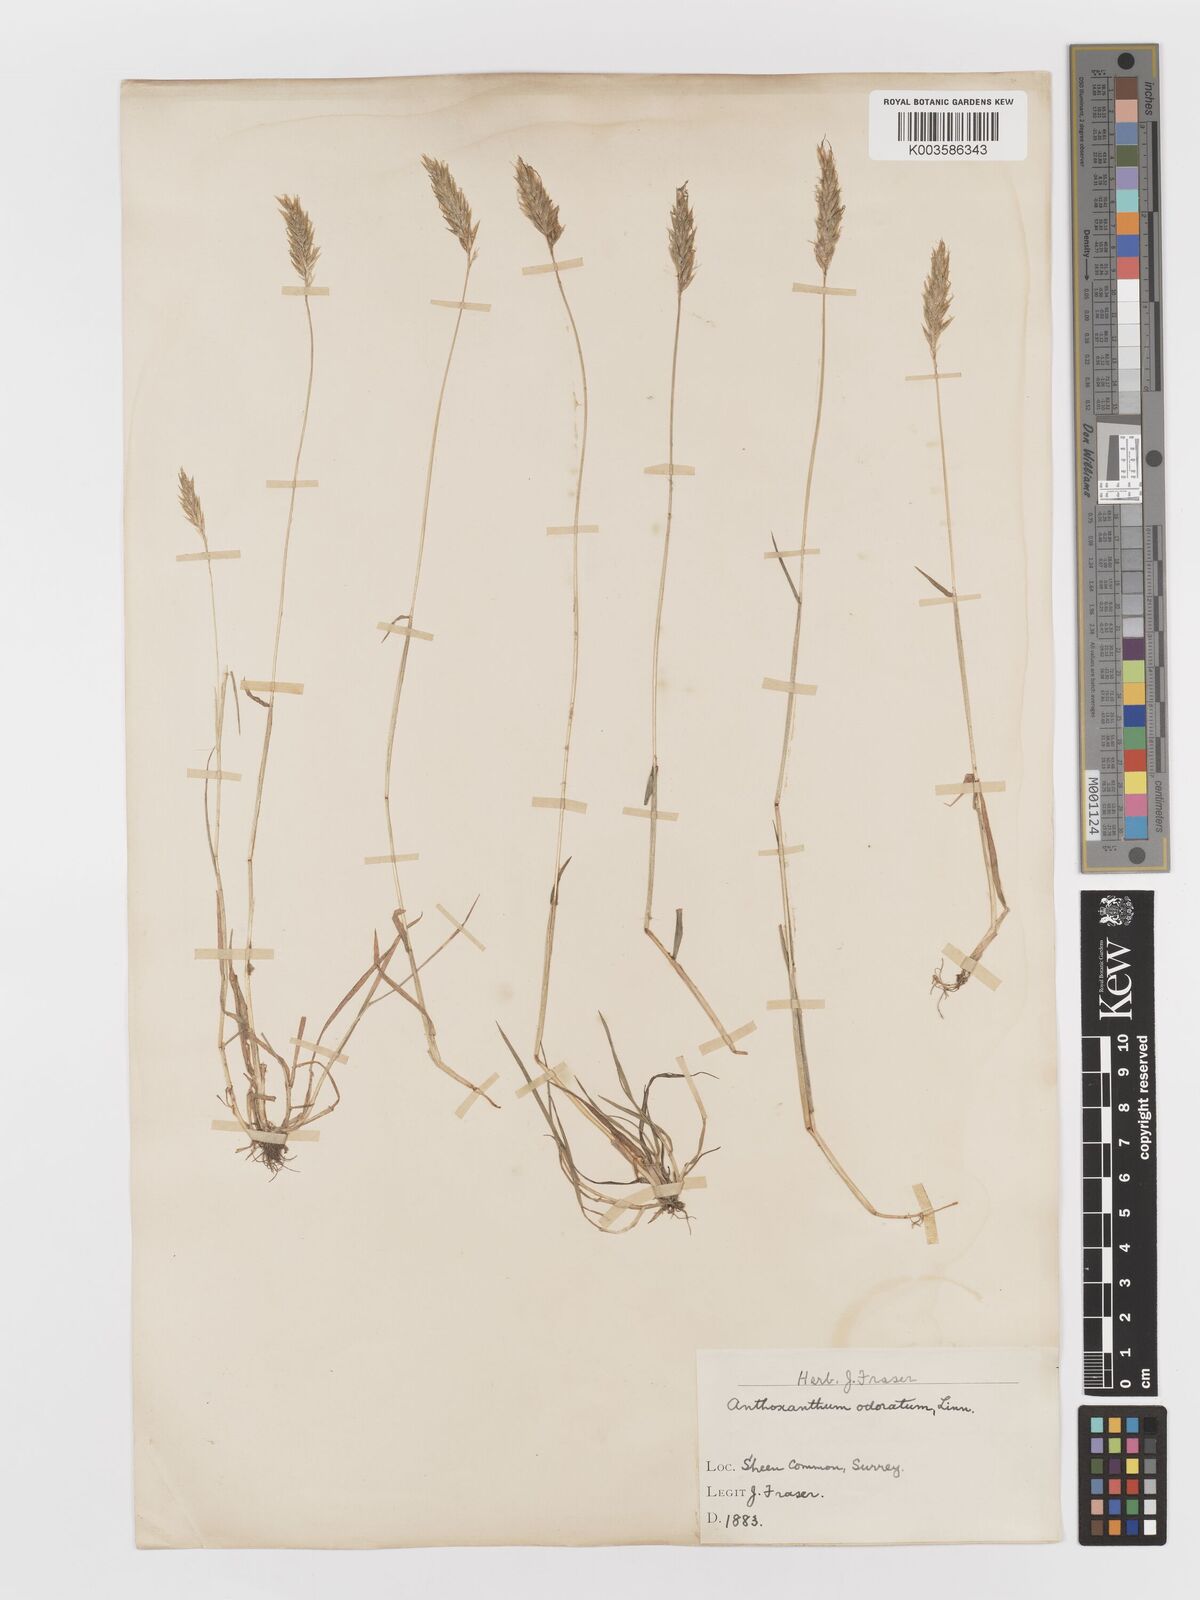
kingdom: Plantae
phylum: Tracheophyta
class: Liliopsida
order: Poales
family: Poaceae
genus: Anthoxanthum
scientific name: Anthoxanthum odoratum
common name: Sweet vernalgrass
